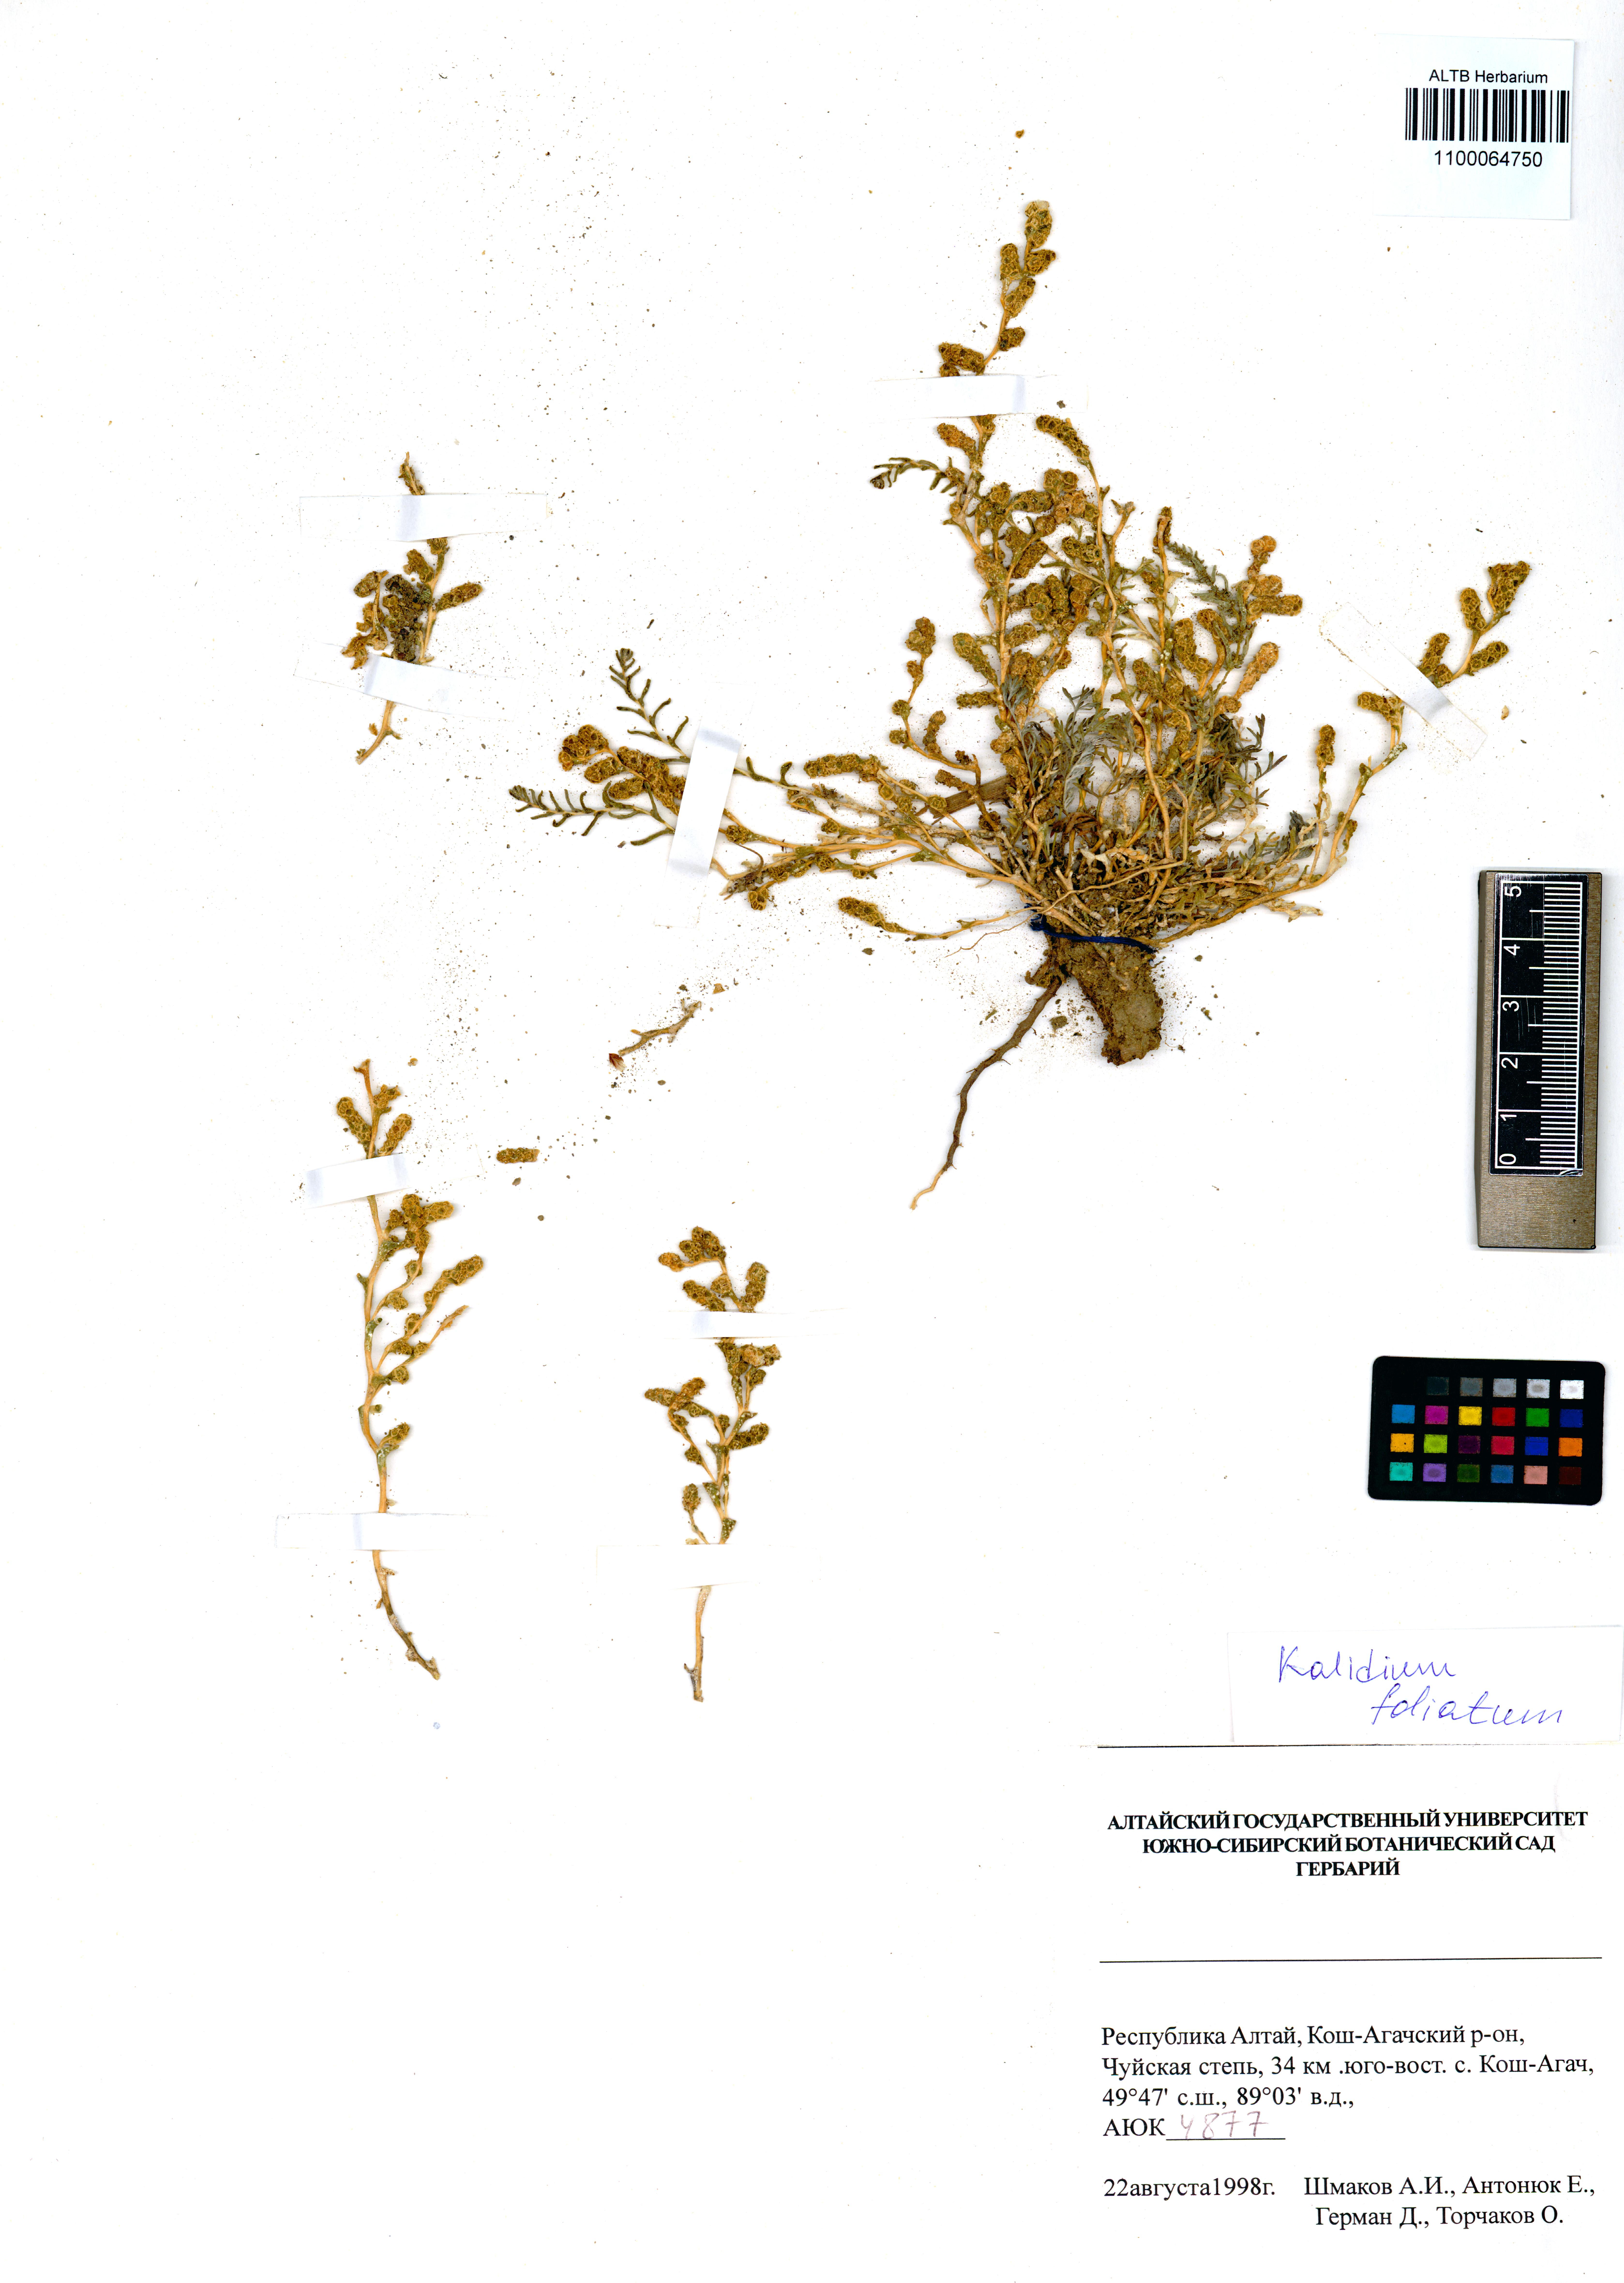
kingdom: Plantae
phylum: Tracheophyta
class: Magnoliopsida
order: Caryophyllales
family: Amaranthaceae
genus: Kalidium
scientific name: Kalidium foliatum
